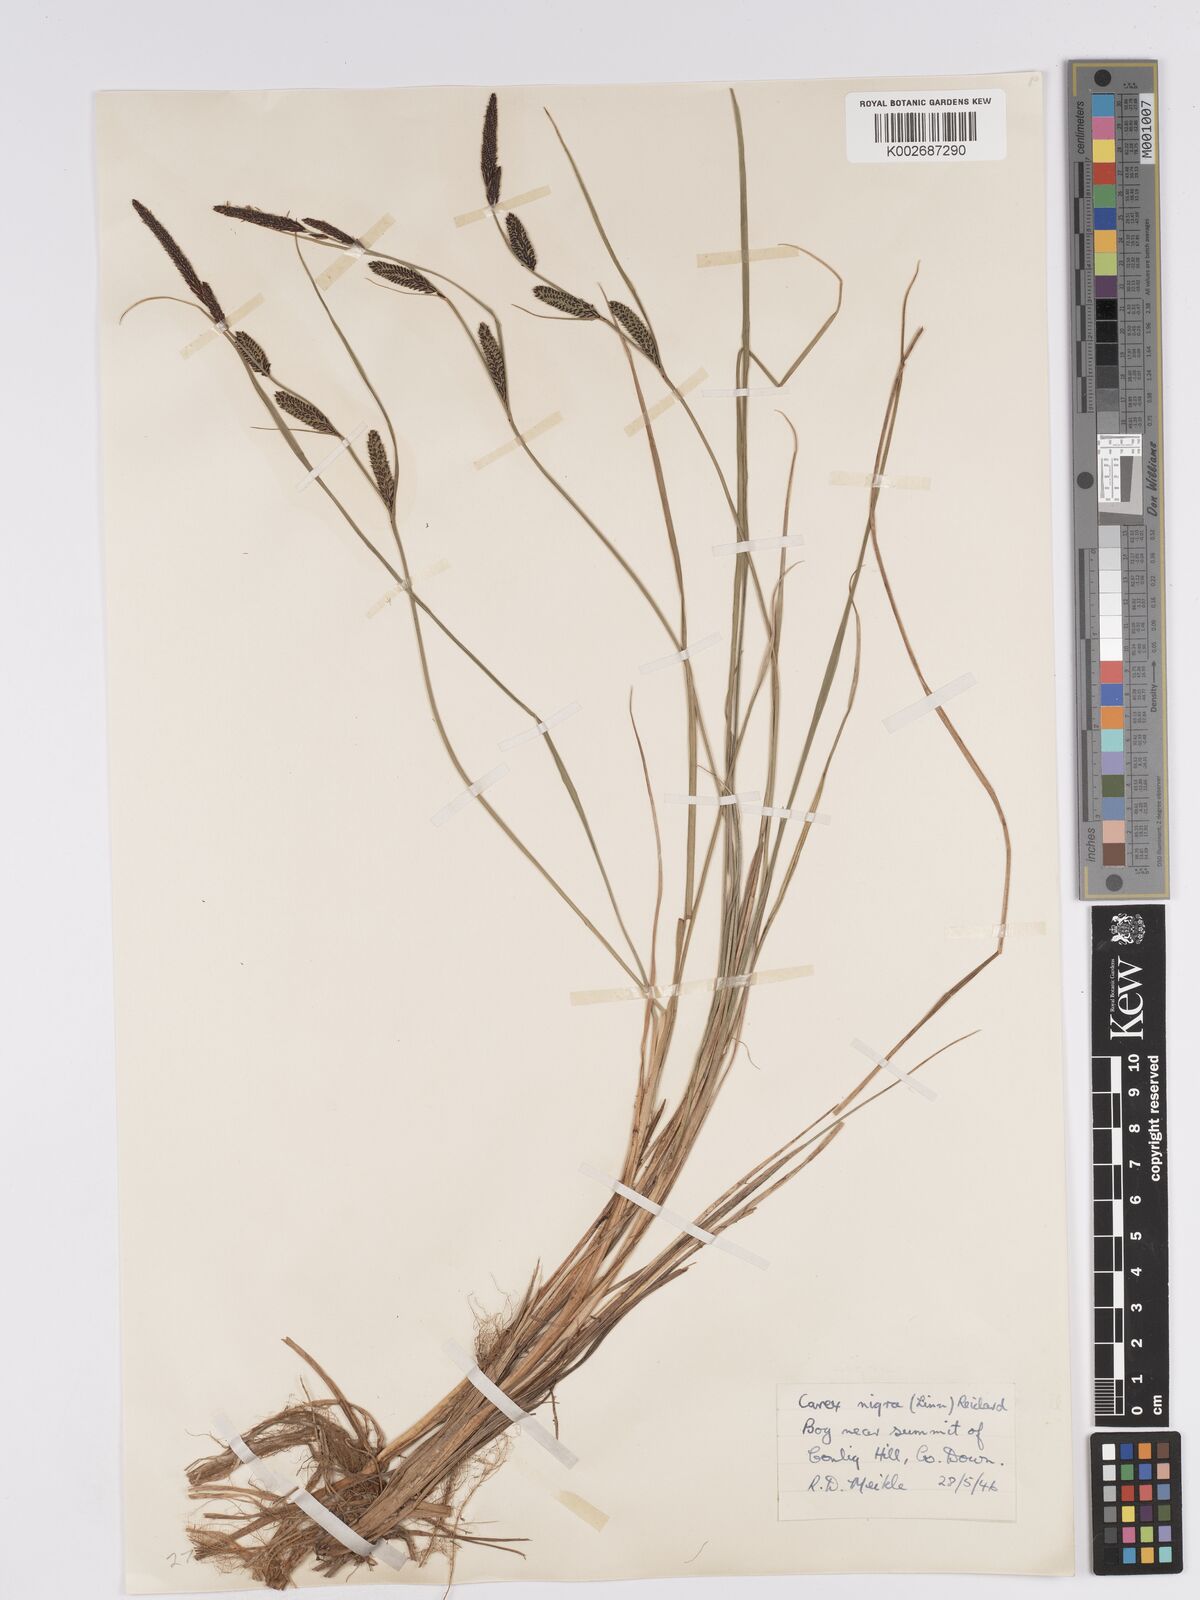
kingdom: Plantae
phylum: Tracheophyta
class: Liliopsida
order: Poales
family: Cyperaceae
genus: Carex
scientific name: Carex nigra
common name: Common sedge
